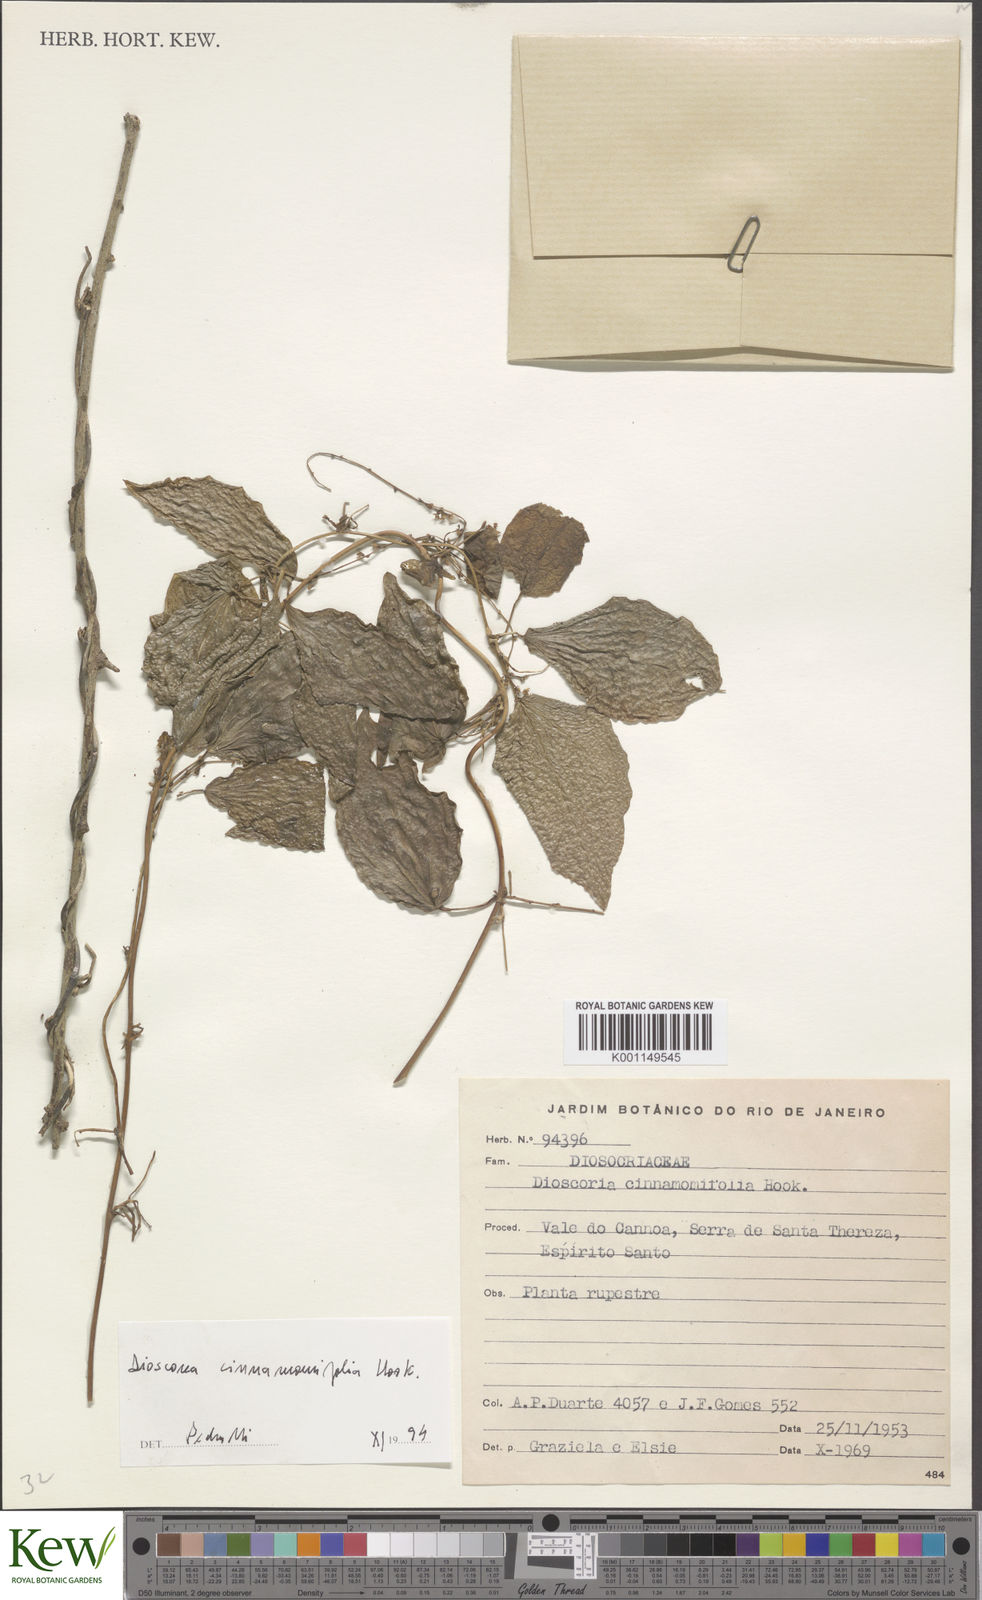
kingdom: Plantae
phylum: Tracheophyta
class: Liliopsida
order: Dioscoreales
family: Dioscoreaceae
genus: Dioscorea
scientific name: Dioscorea cinnamomifolia
